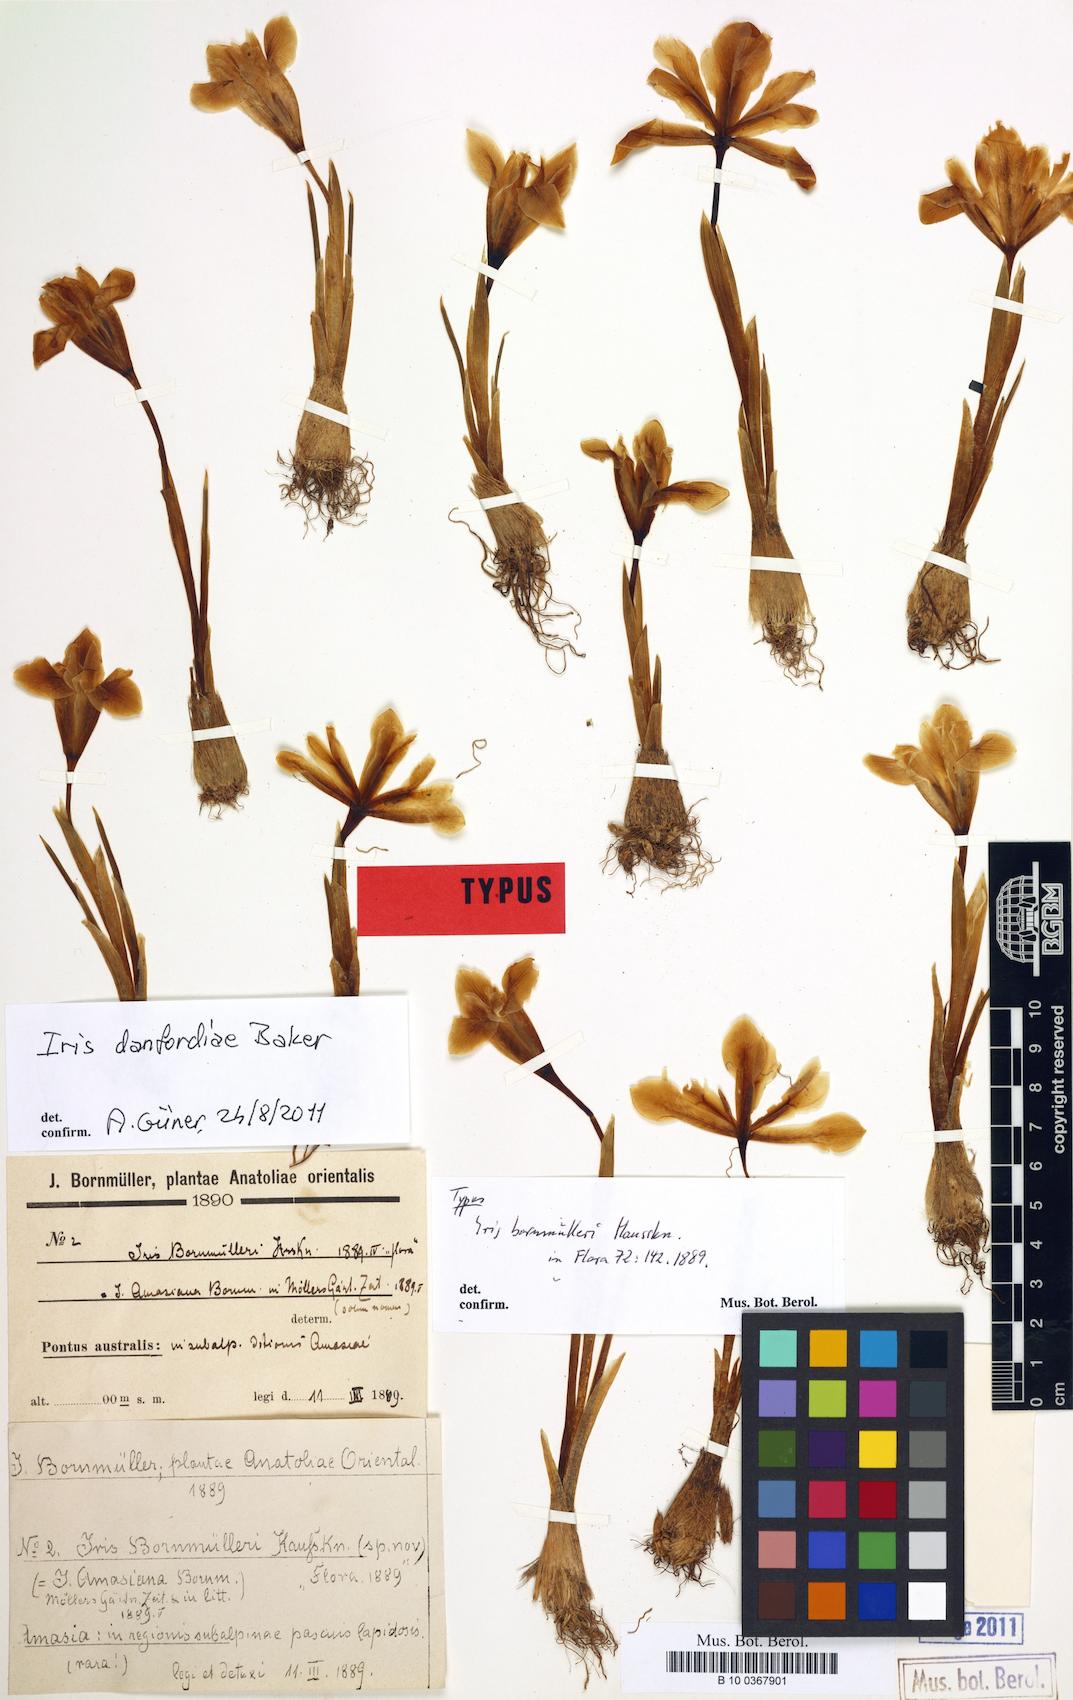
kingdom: Plantae
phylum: Tracheophyta
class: Liliopsida
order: Asparagales
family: Iridaceae
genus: Iris
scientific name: Iris danfordiae
